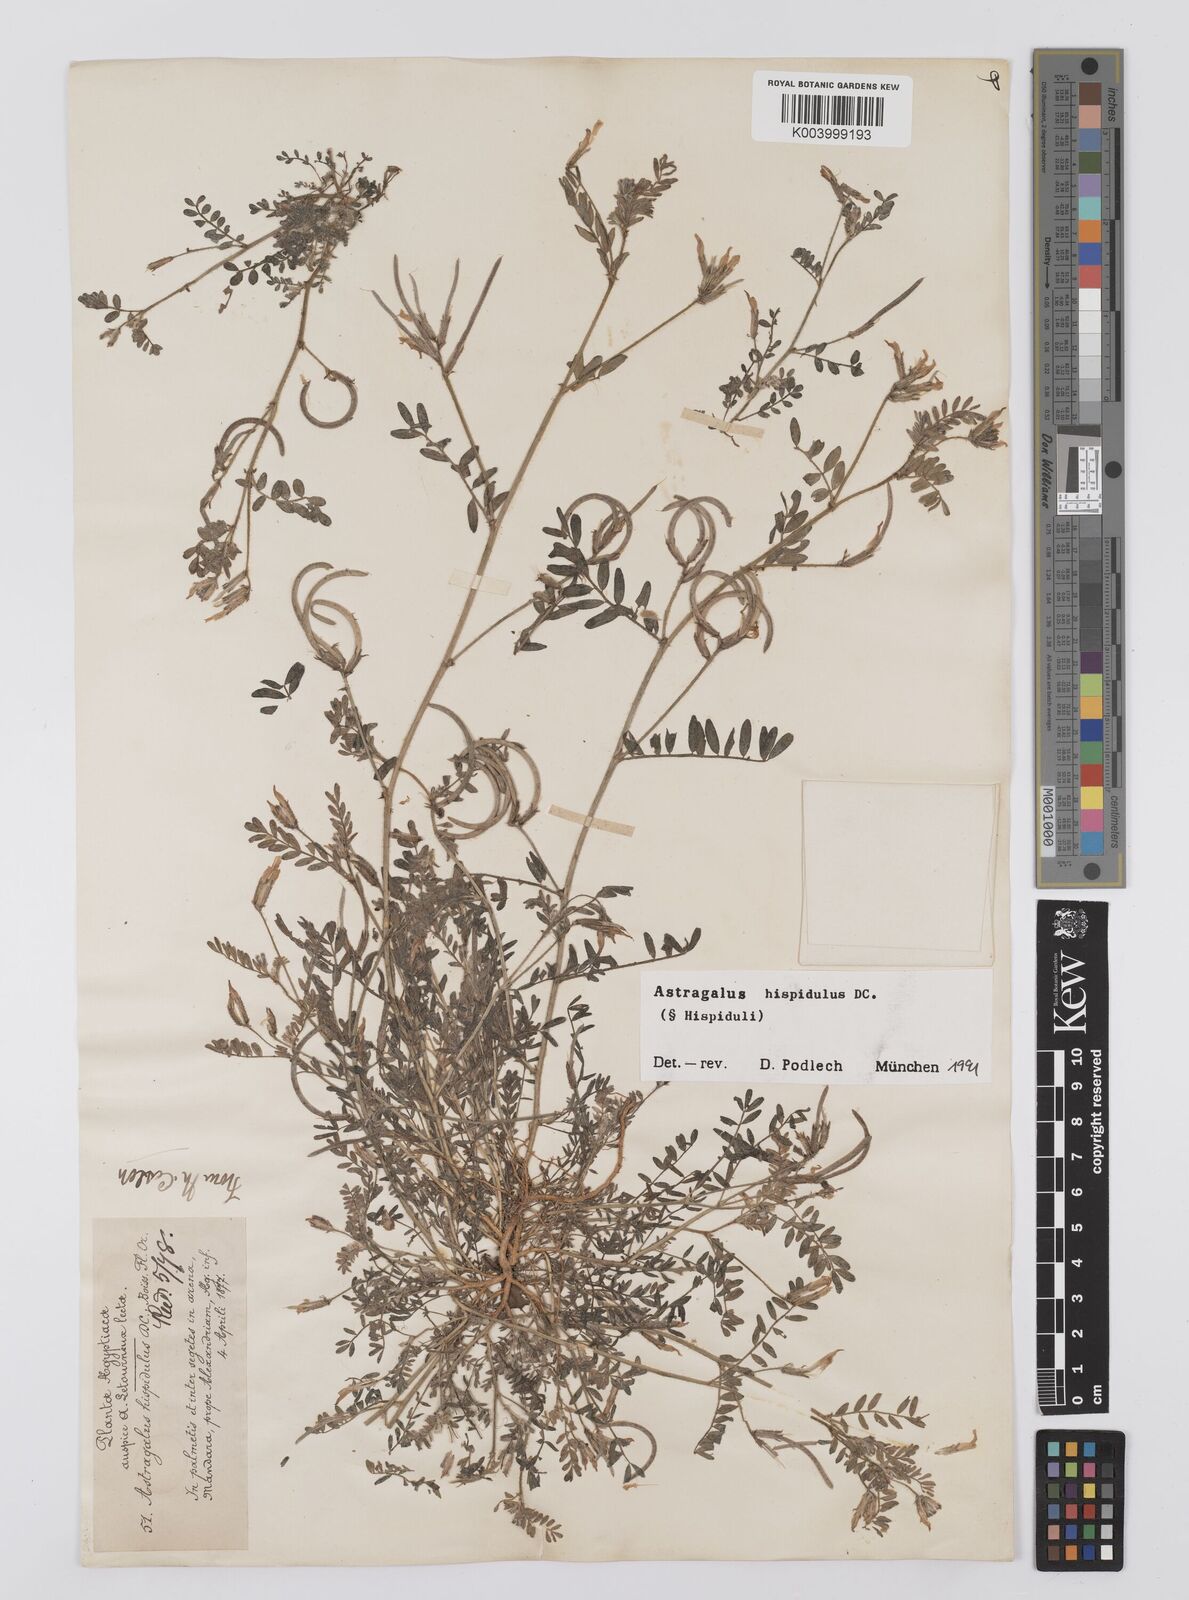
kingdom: Plantae
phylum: Tracheophyta
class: Magnoliopsida
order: Fabales
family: Fabaceae
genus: Astragalus
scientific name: Astragalus hispidulus
